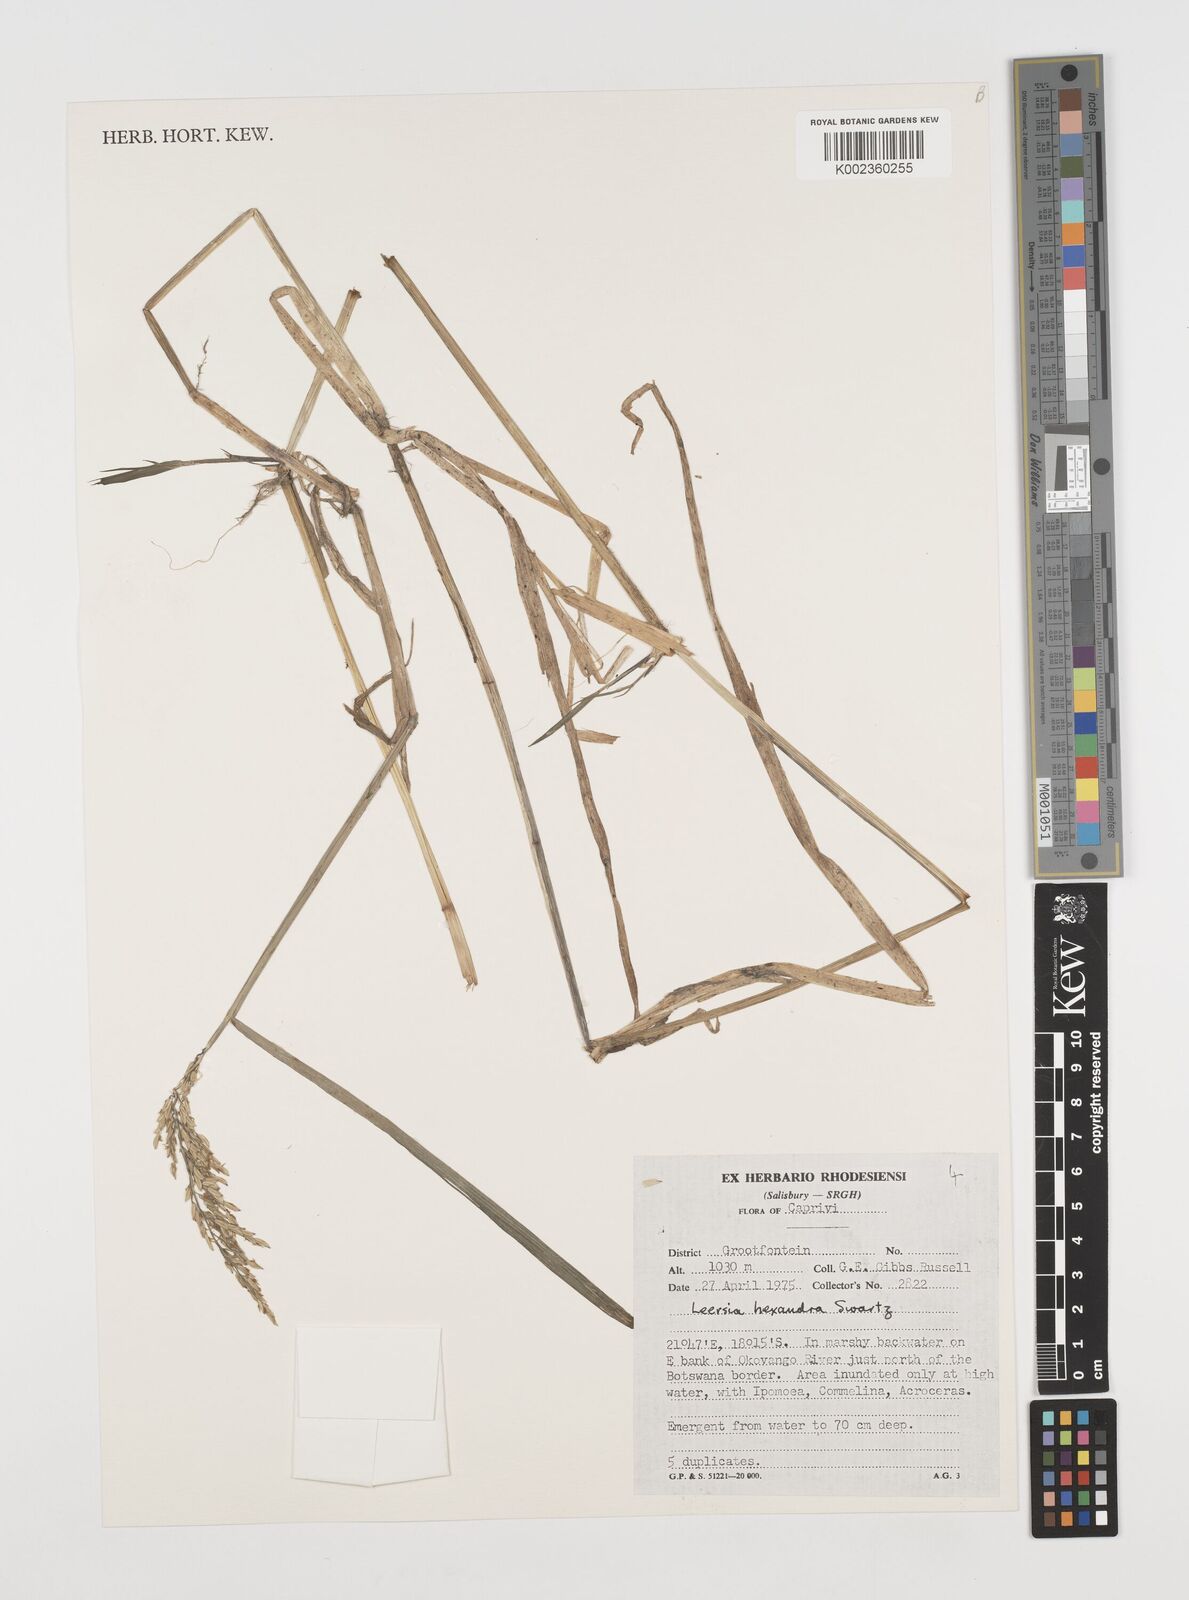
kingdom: Plantae
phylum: Tracheophyta
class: Liliopsida
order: Poales
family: Poaceae
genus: Leersia
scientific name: Leersia hexandra
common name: Southern cut grass
